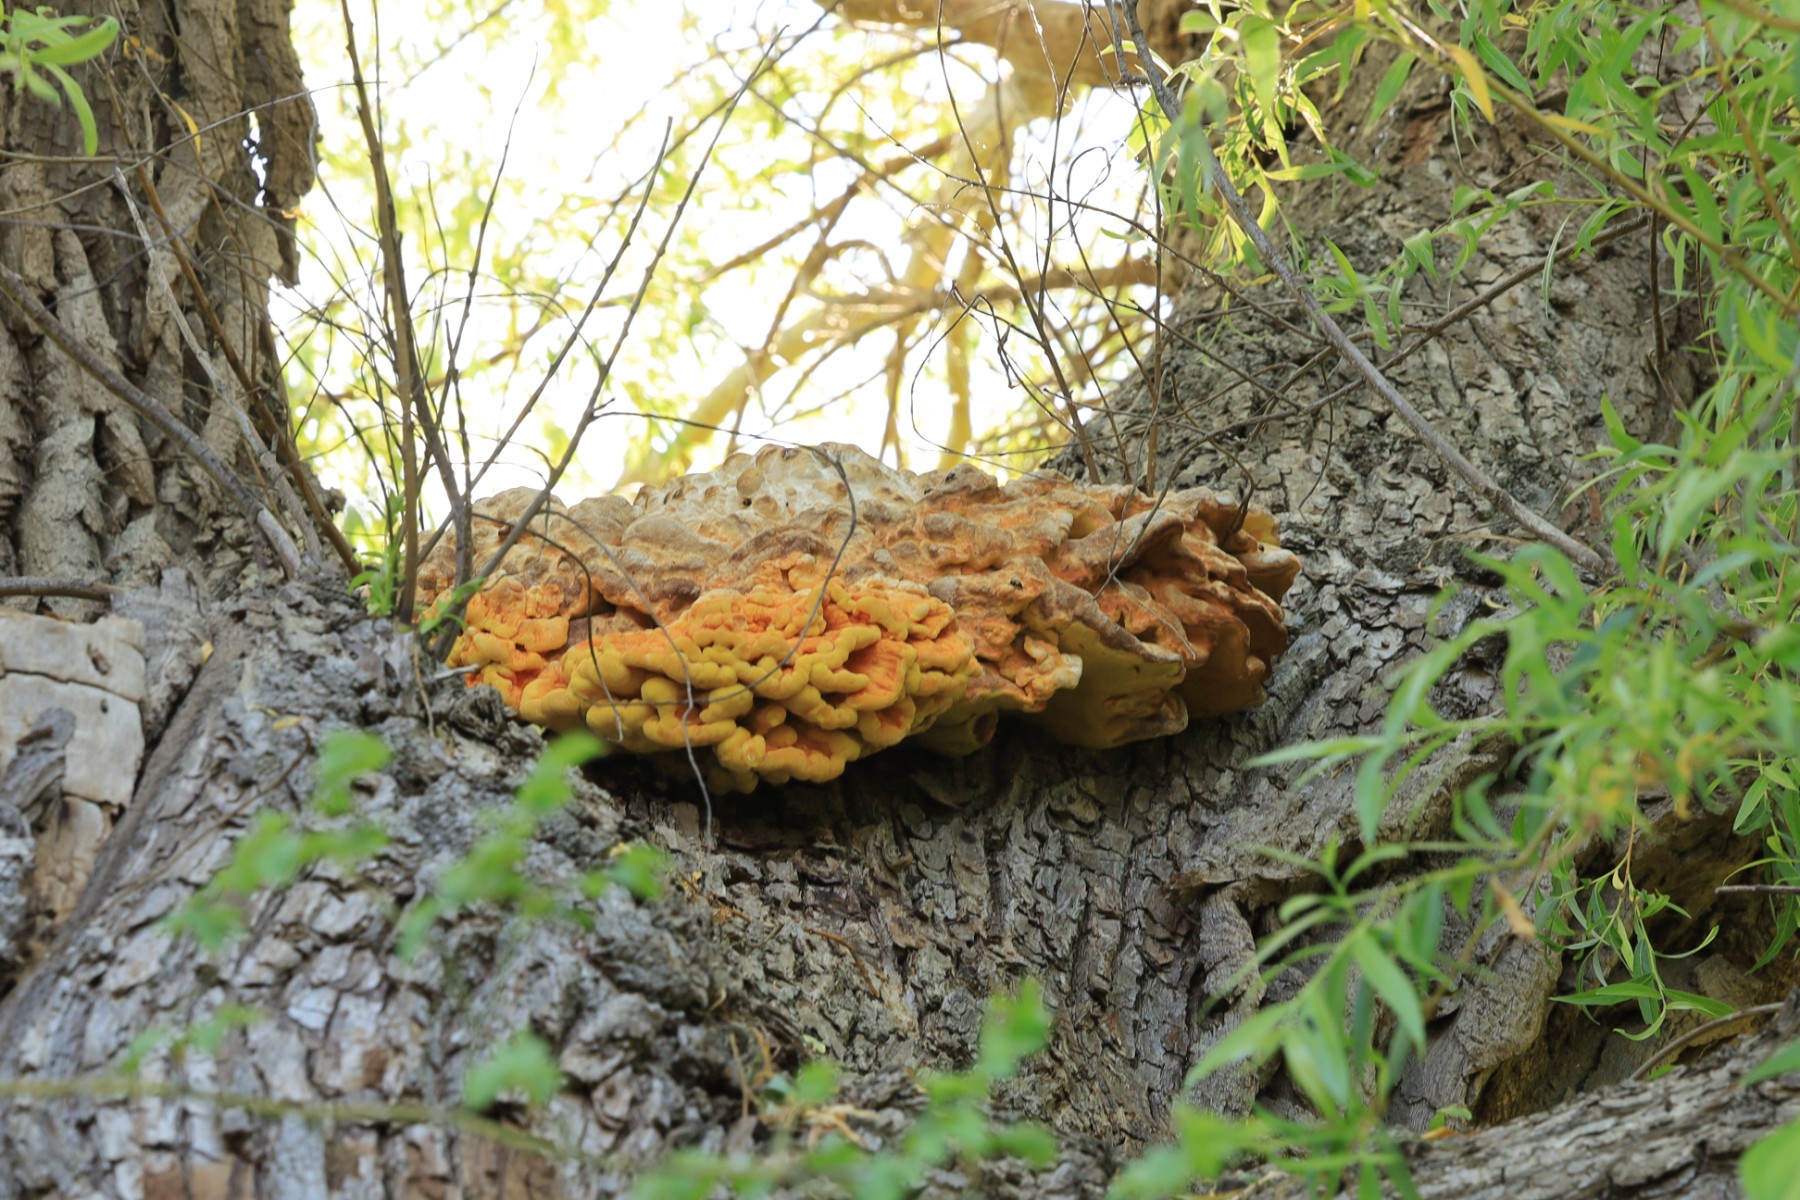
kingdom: Fungi
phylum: Basidiomycota
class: Agaricomycetes
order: Polyporales
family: Laetiporaceae
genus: Laetiporus
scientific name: Laetiporus sulphureus
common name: svovlporesvamp
